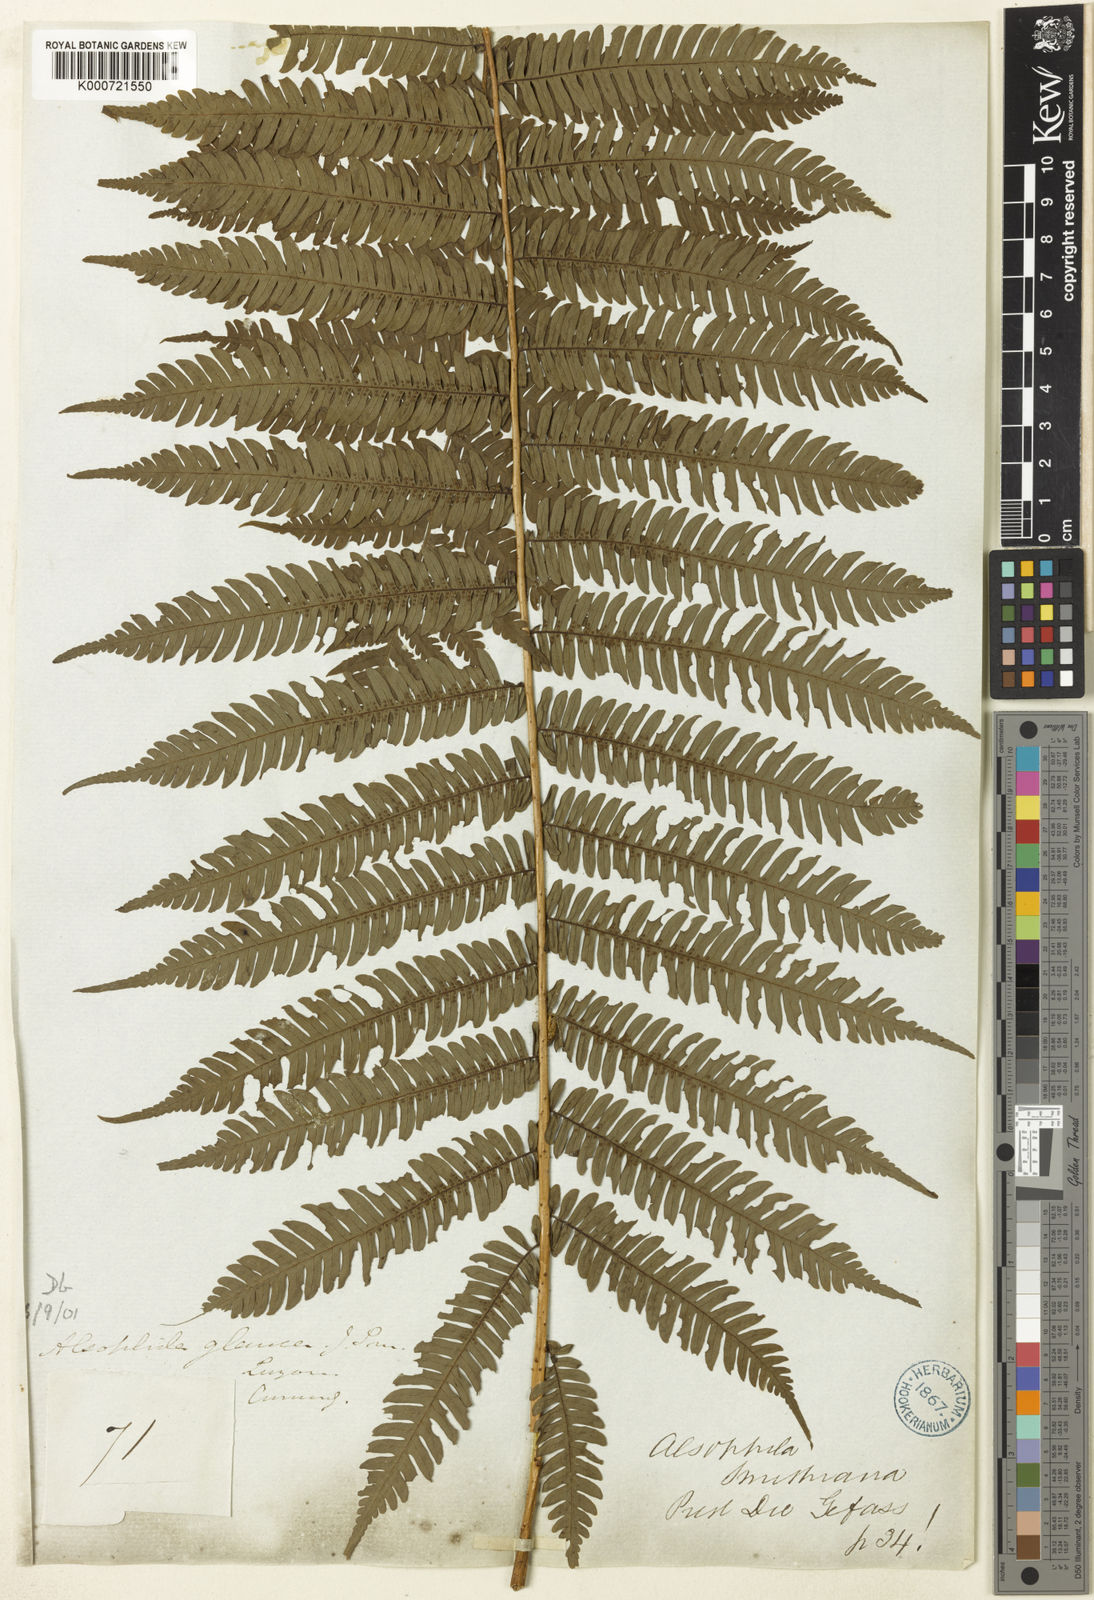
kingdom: Plantae
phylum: Tracheophyta
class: Polypodiopsida
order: Cyatheales
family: Cyatheaceae
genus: Sphaeropteris
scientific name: Sphaeropteris glauca
